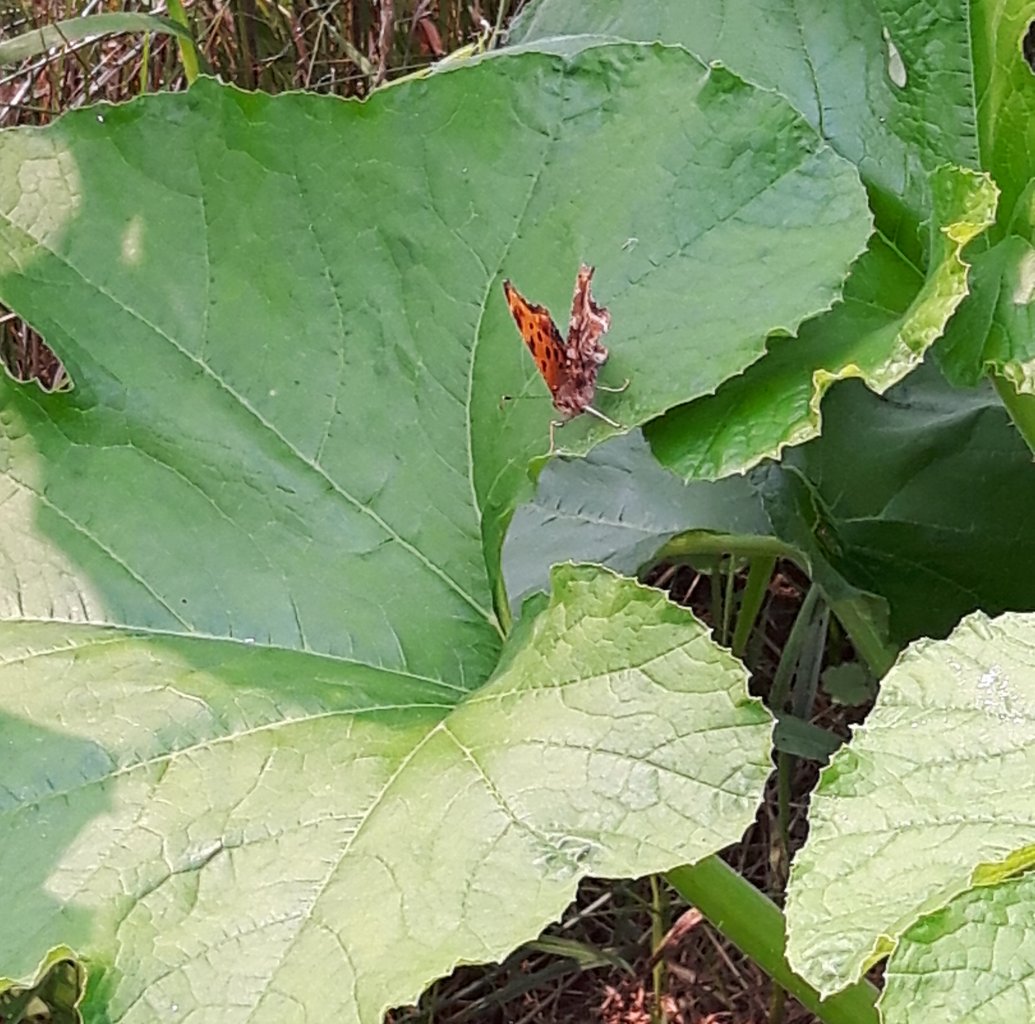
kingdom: Animalia
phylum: Arthropoda
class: Insecta
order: Lepidoptera
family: Nymphalidae
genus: Polygonia
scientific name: Polygonia comma
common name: Eastern Comma
